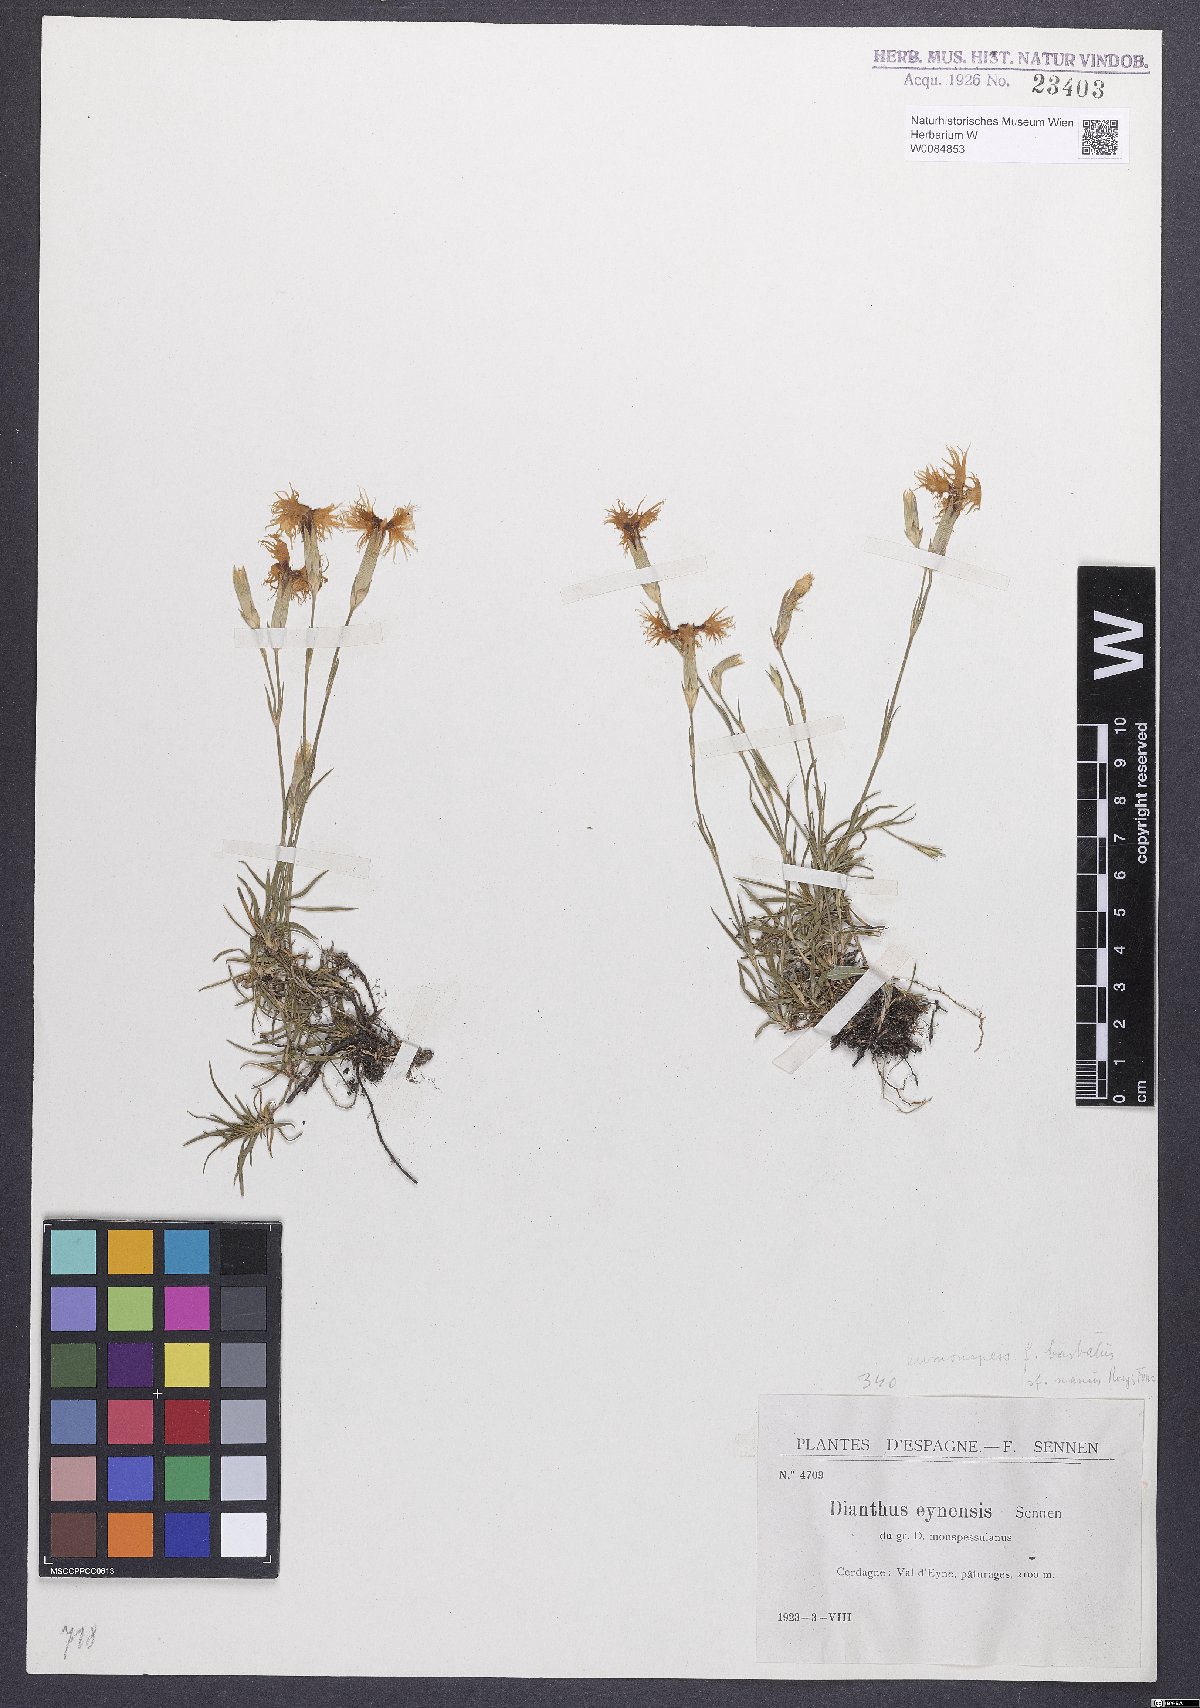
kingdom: Plantae
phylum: Tracheophyta
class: Magnoliopsida
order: Caryophyllales
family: Caryophyllaceae
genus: Dianthus
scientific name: Dianthus hyssopifolius
